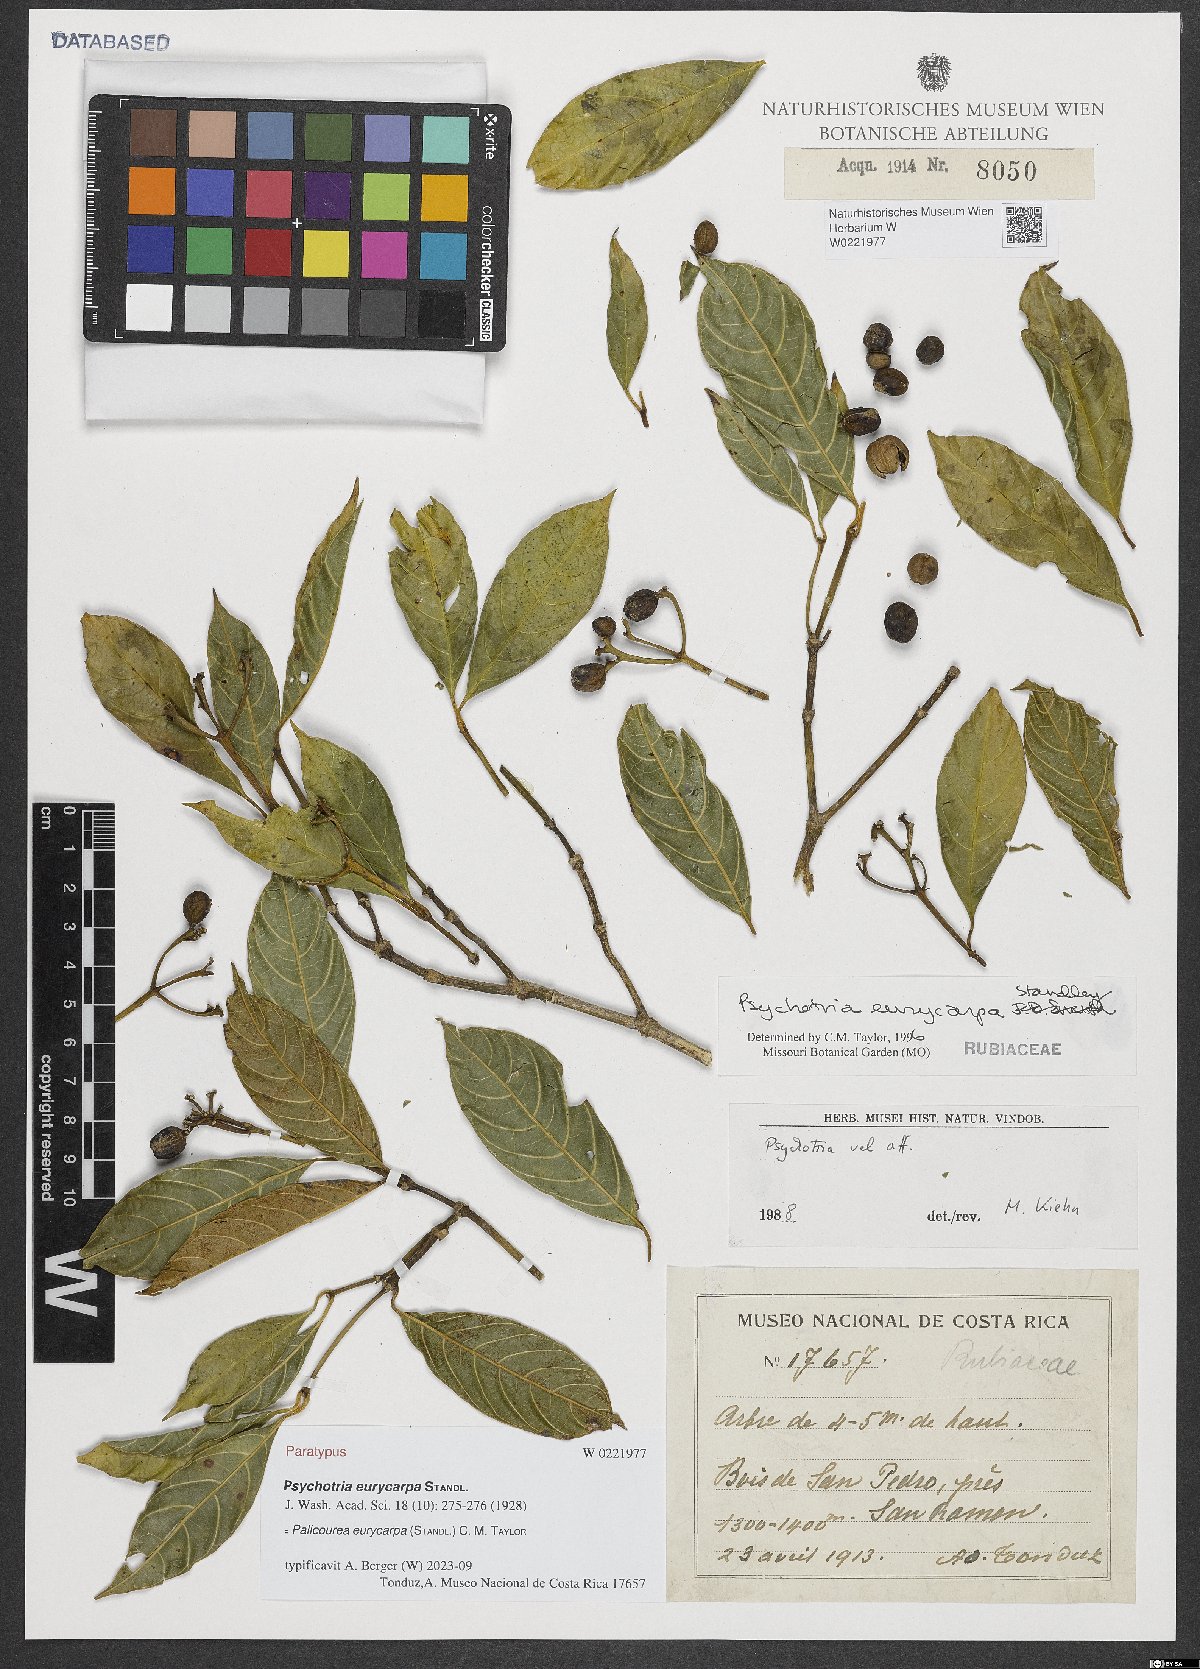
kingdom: Plantae
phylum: Tracheophyta
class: Magnoliopsida
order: Gentianales
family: Rubiaceae
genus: Palicourea
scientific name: Palicourea eurycarpa
